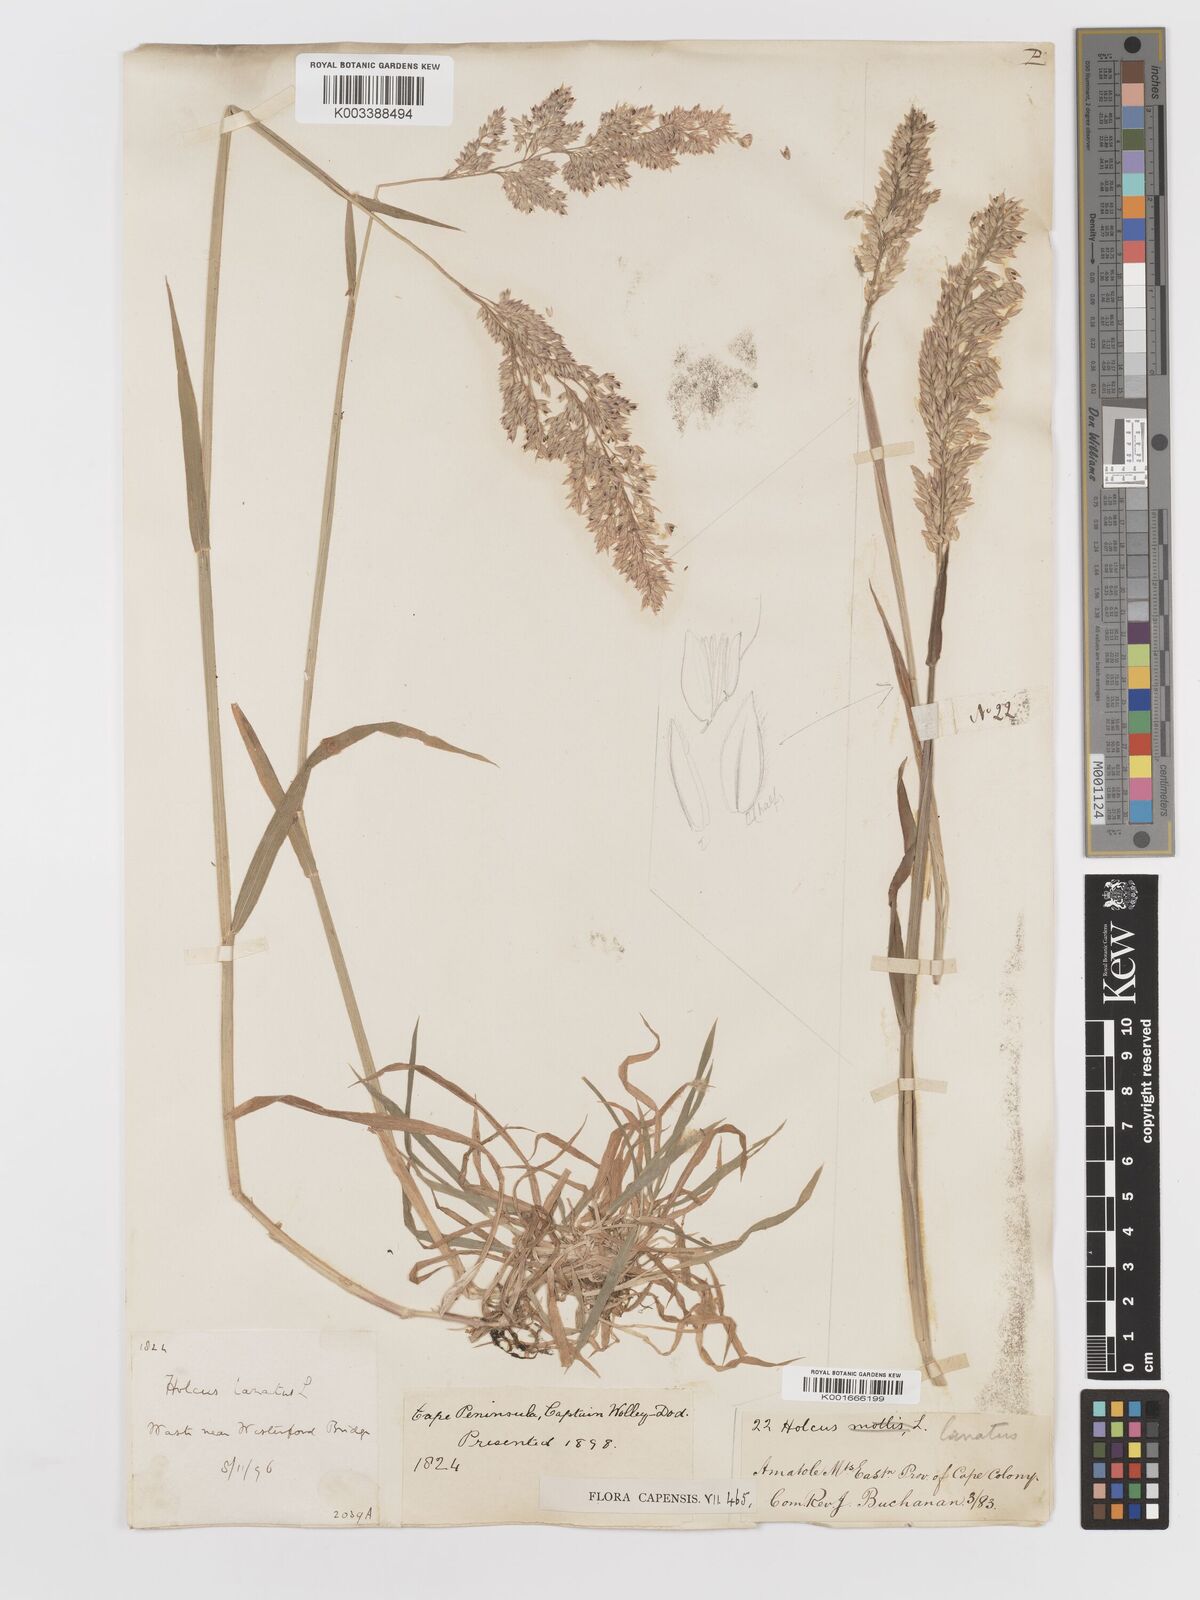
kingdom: Plantae
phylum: Tracheophyta
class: Liliopsida
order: Poales
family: Poaceae
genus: Holcus
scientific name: Holcus lanatus
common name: Yorkshire-fog
